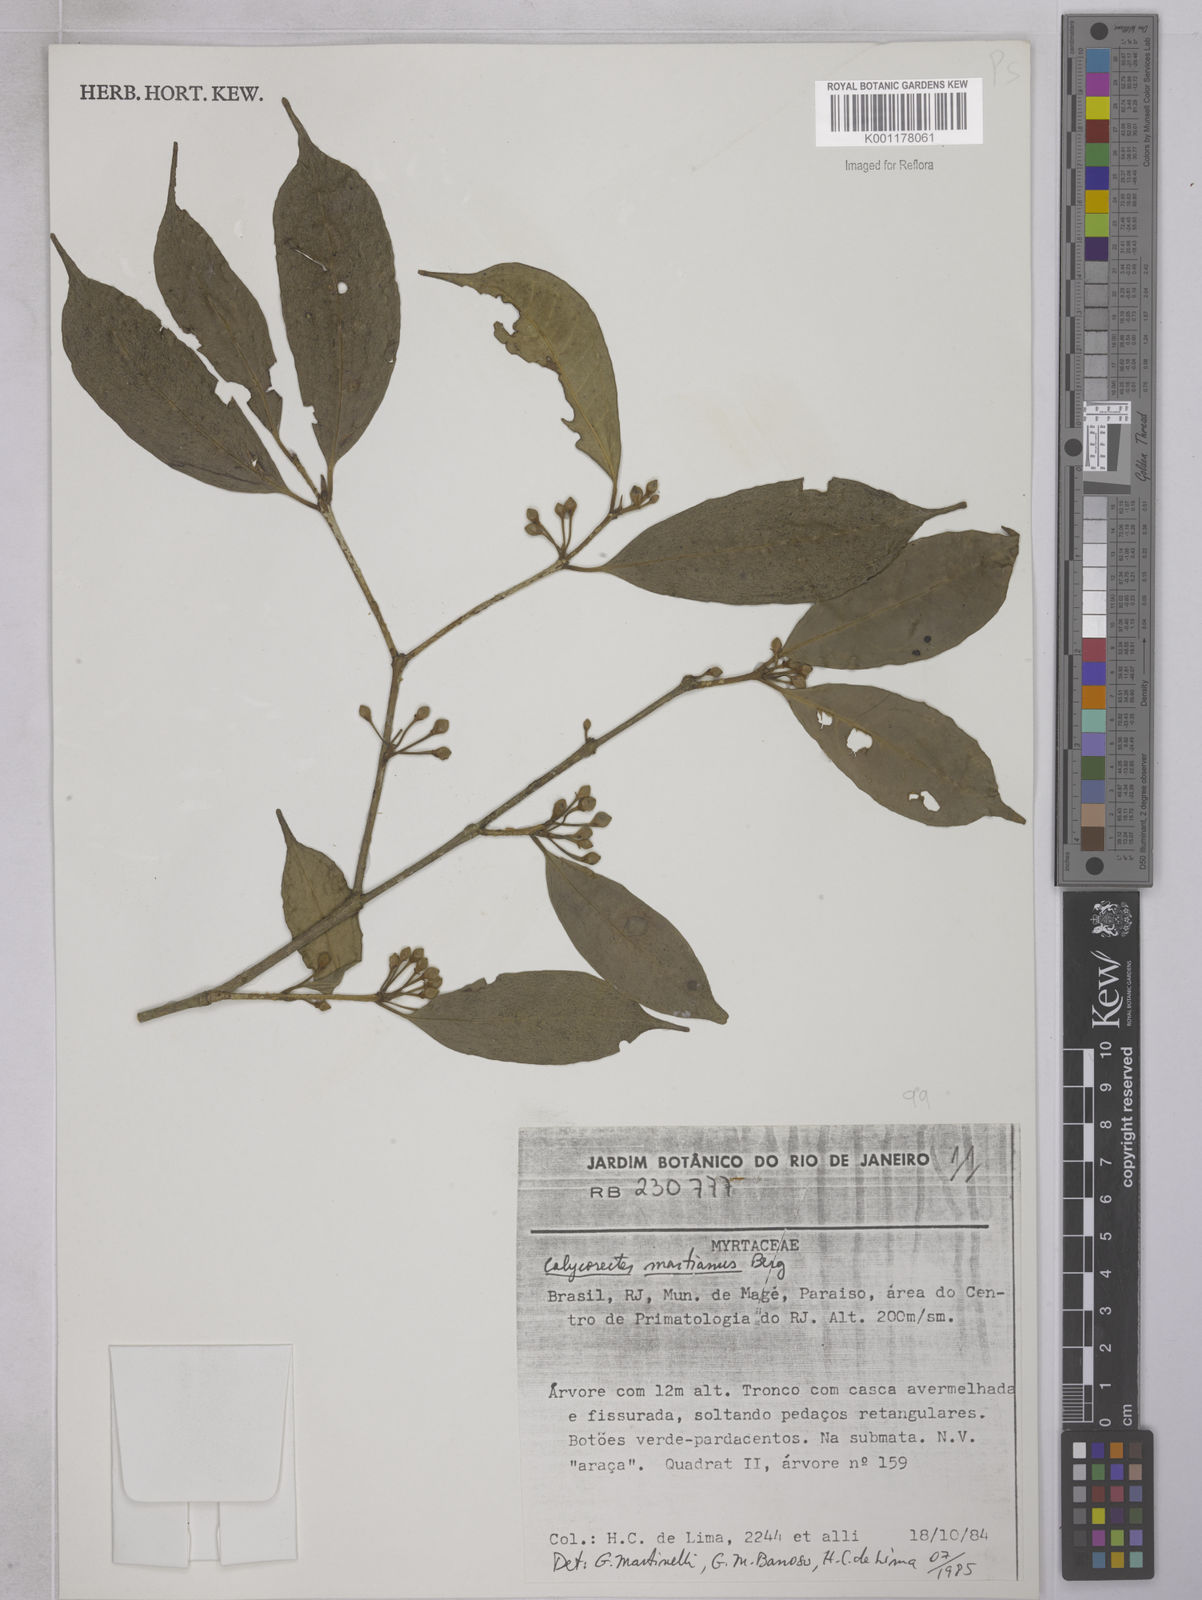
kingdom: Plantae
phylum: Tracheophyta
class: Magnoliopsida
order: Myrtales
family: Myrtaceae
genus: Eugenia
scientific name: Eugenia
